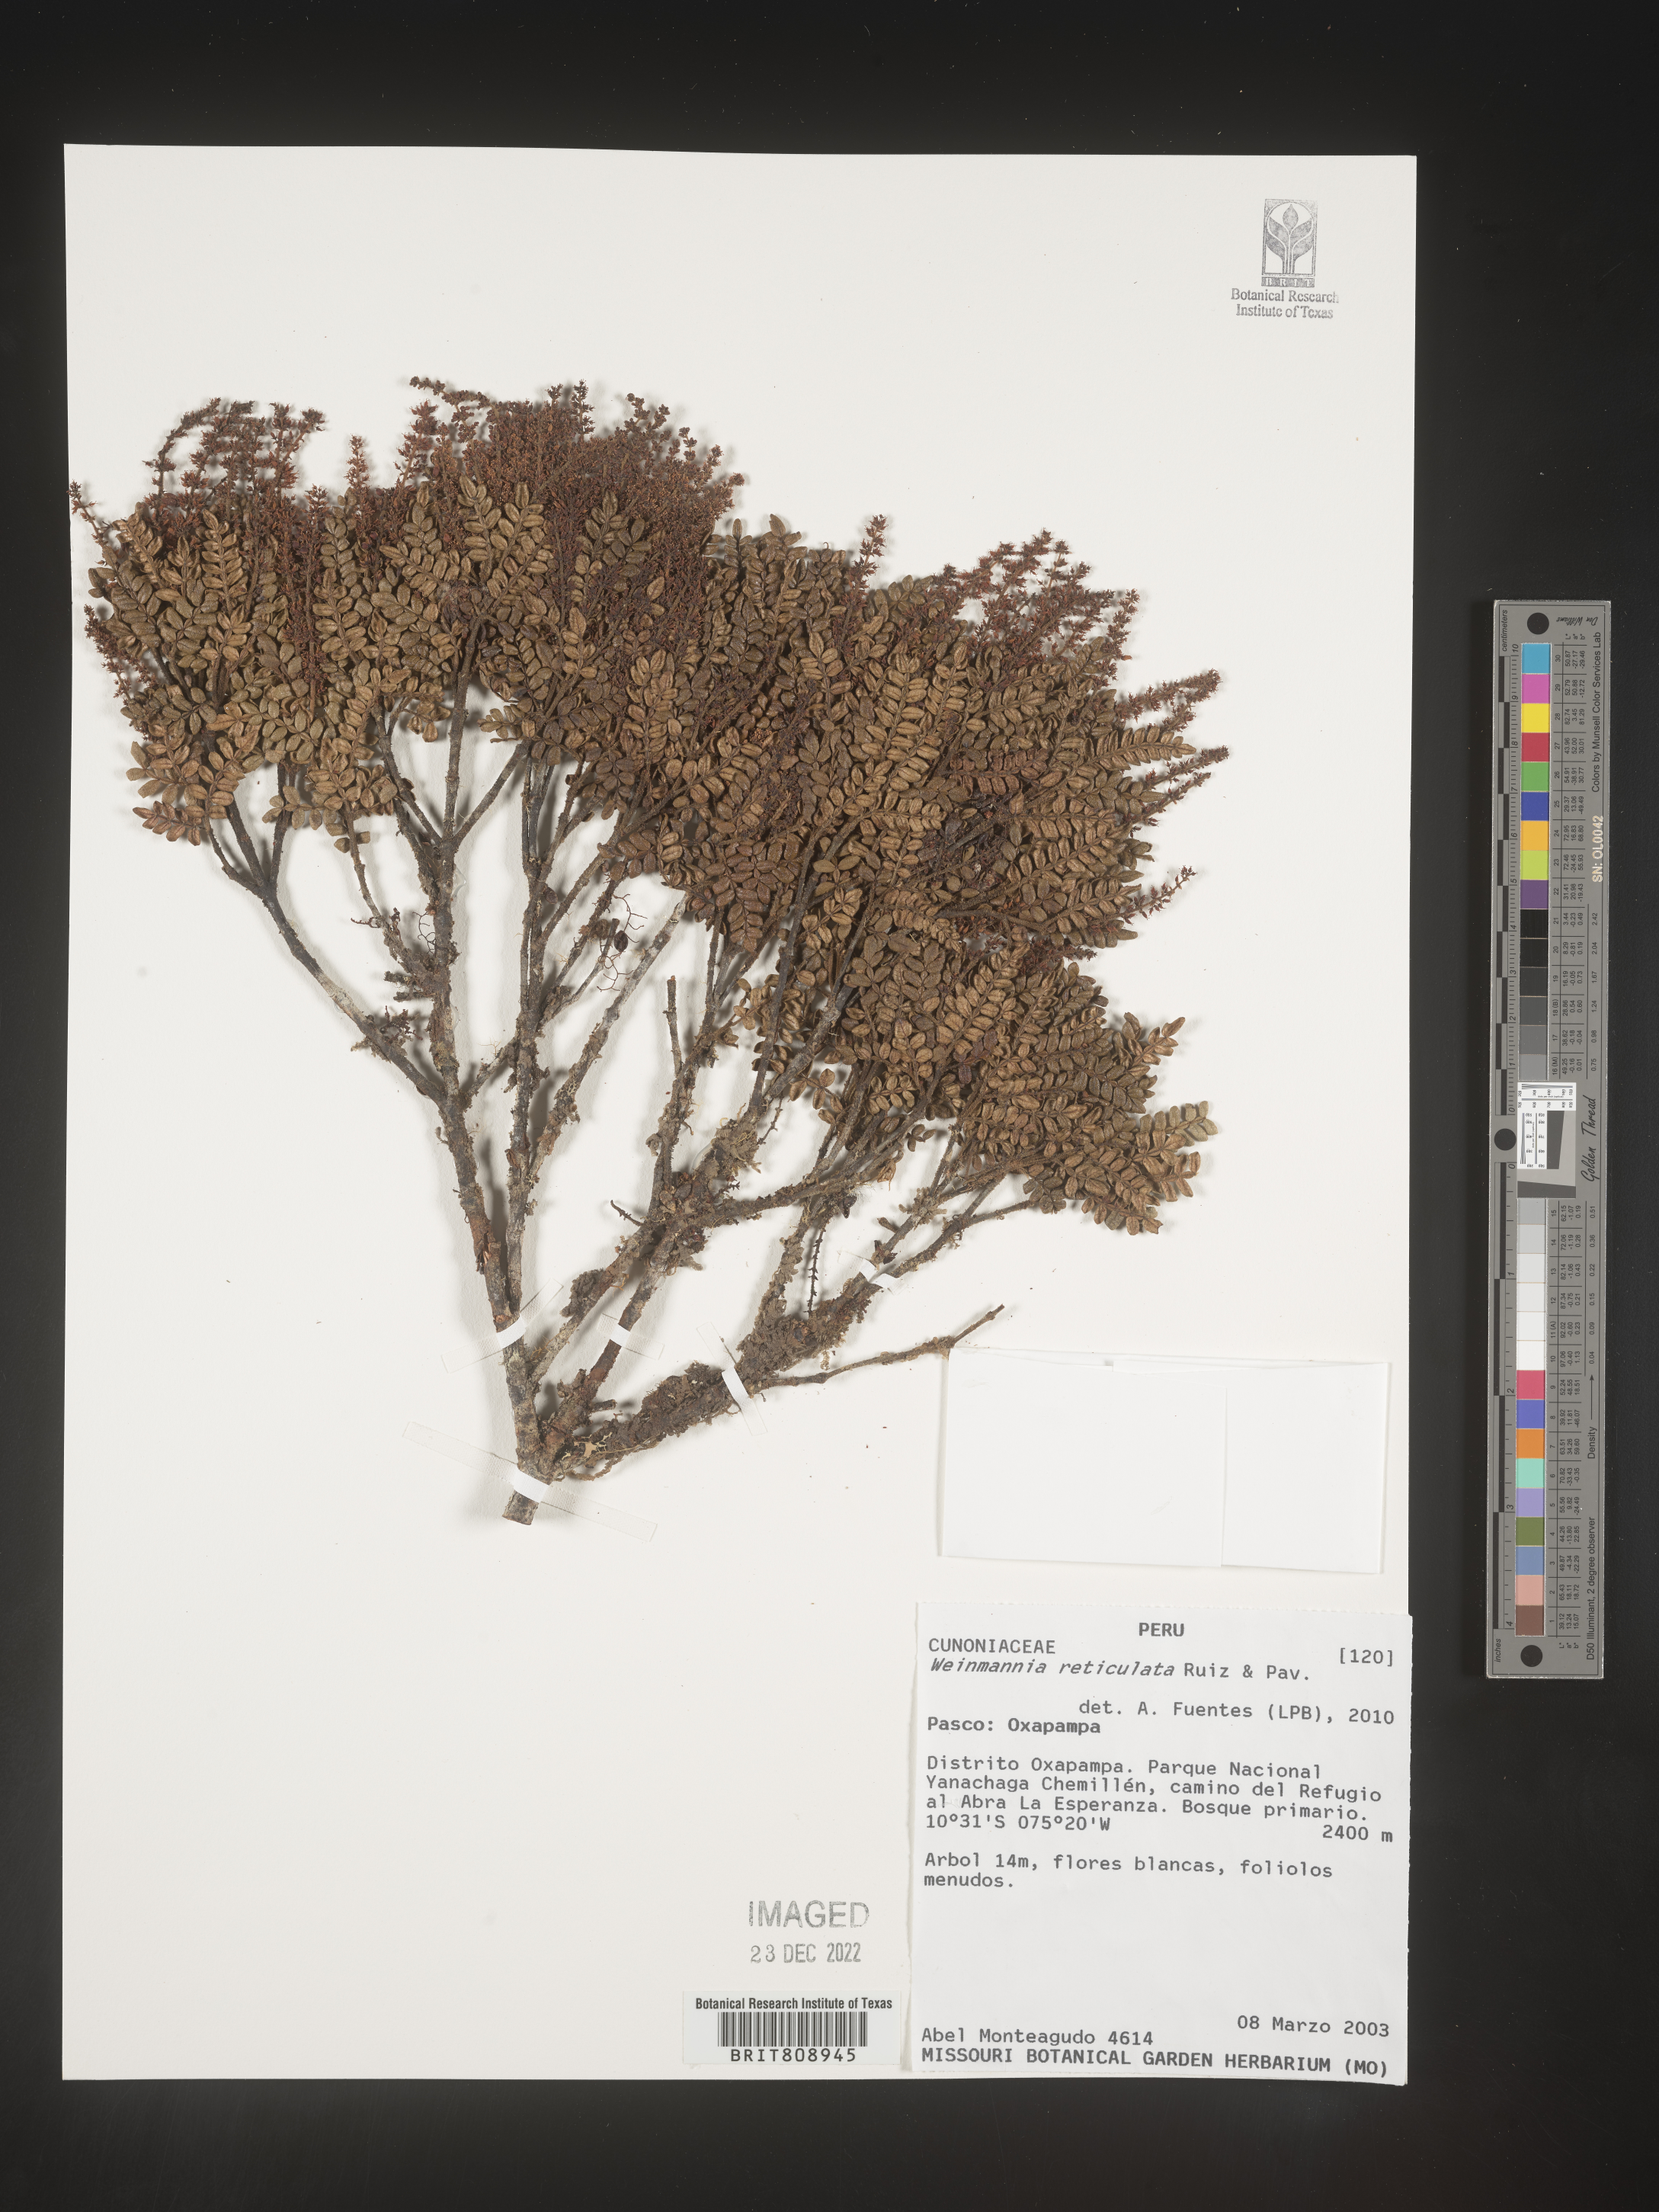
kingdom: Plantae
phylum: Tracheophyta
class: Magnoliopsida
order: Oxalidales
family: Cunoniaceae
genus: Weinmannia
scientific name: Weinmannia
